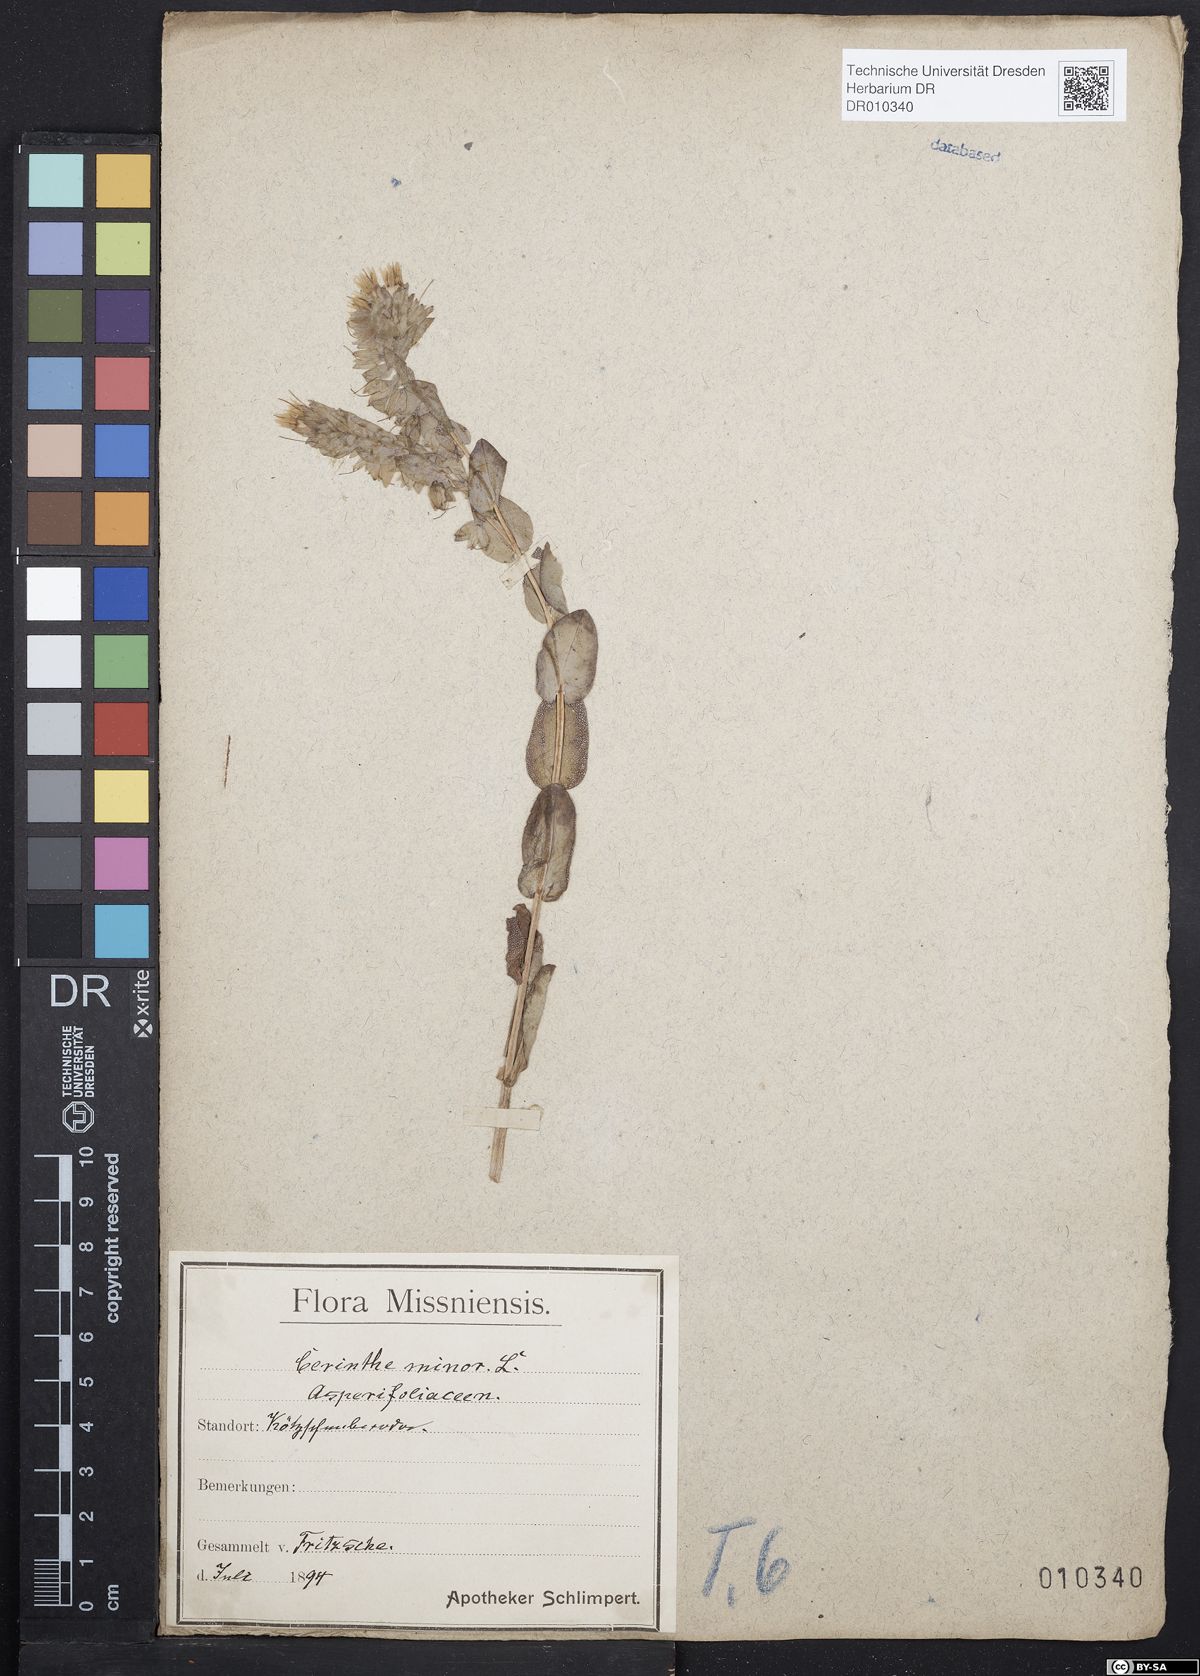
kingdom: Plantae
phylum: Tracheophyta
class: Magnoliopsida
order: Boraginales
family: Boraginaceae
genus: Cerinthe
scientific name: Cerinthe minor
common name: Lesser honeywort
